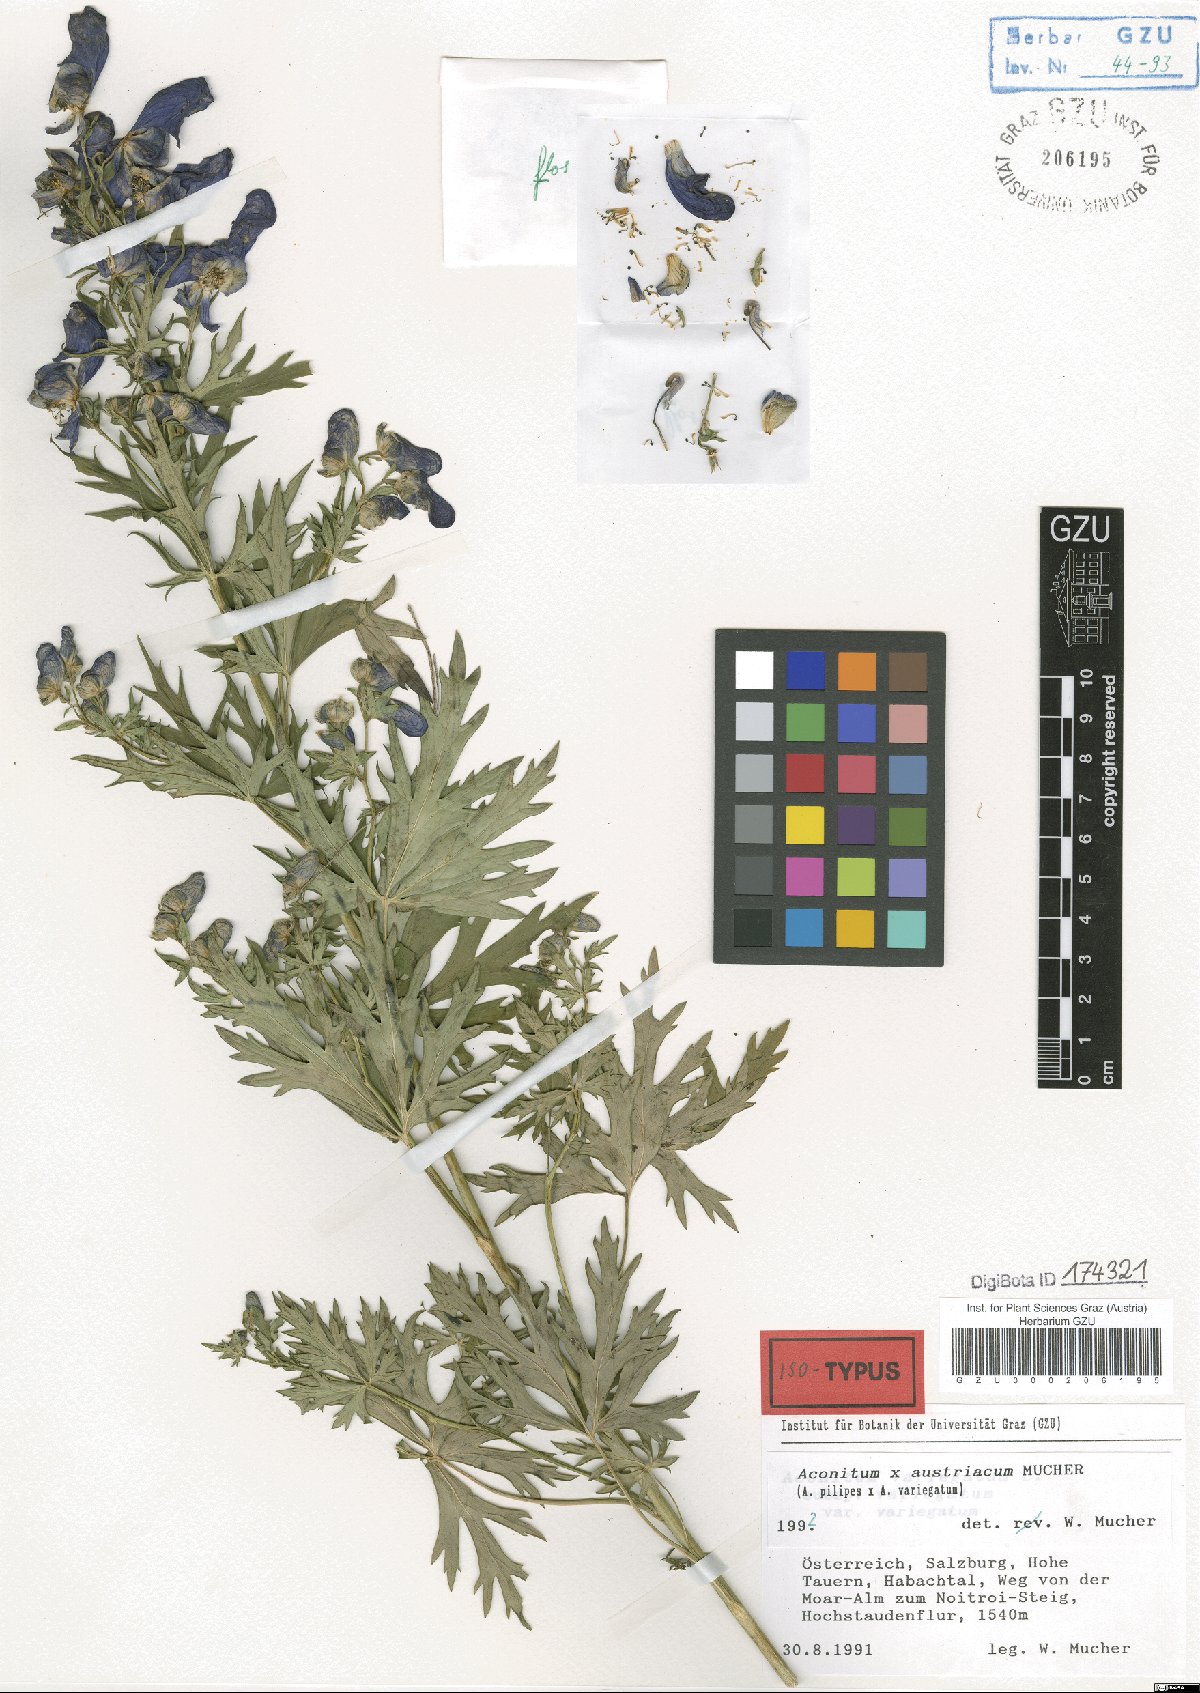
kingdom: Plantae
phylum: Tracheophyta
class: Magnoliopsida
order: Ranunculales
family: Ranunculaceae
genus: Aconitum
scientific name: Aconitum austriacum
